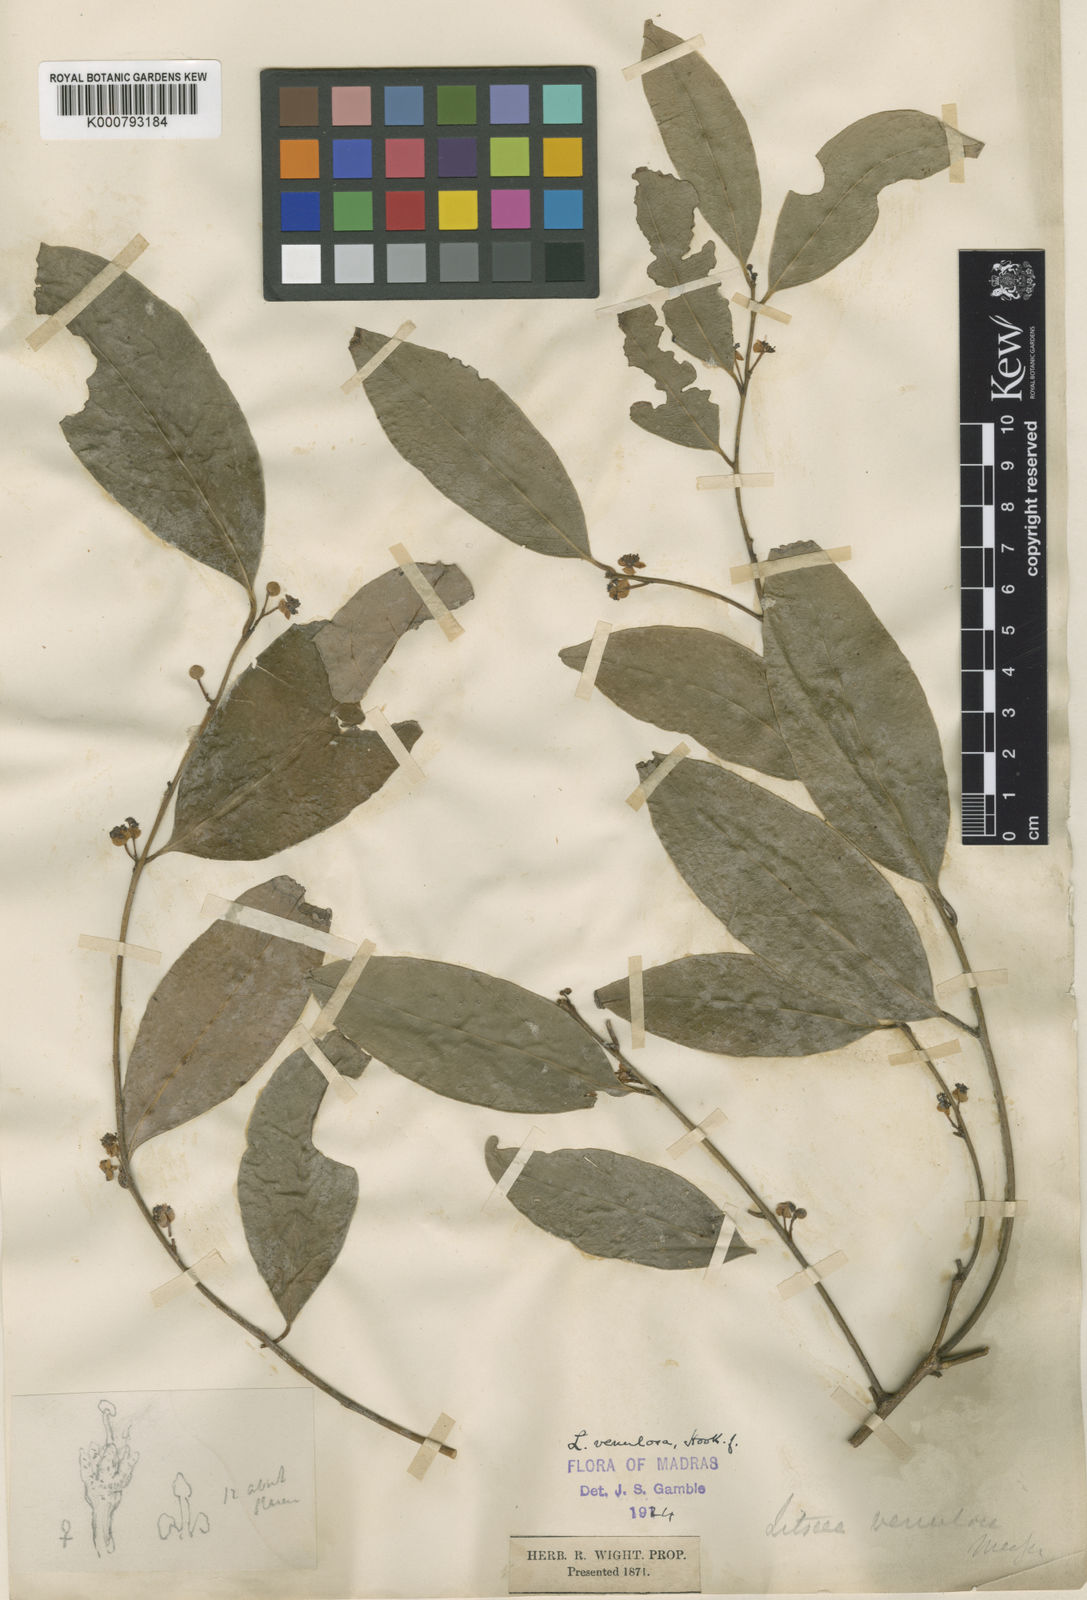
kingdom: Plantae
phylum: Tracheophyta
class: Magnoliopsida
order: Laurales
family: Lauraceae
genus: Litsea
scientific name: Litsea venulosa
